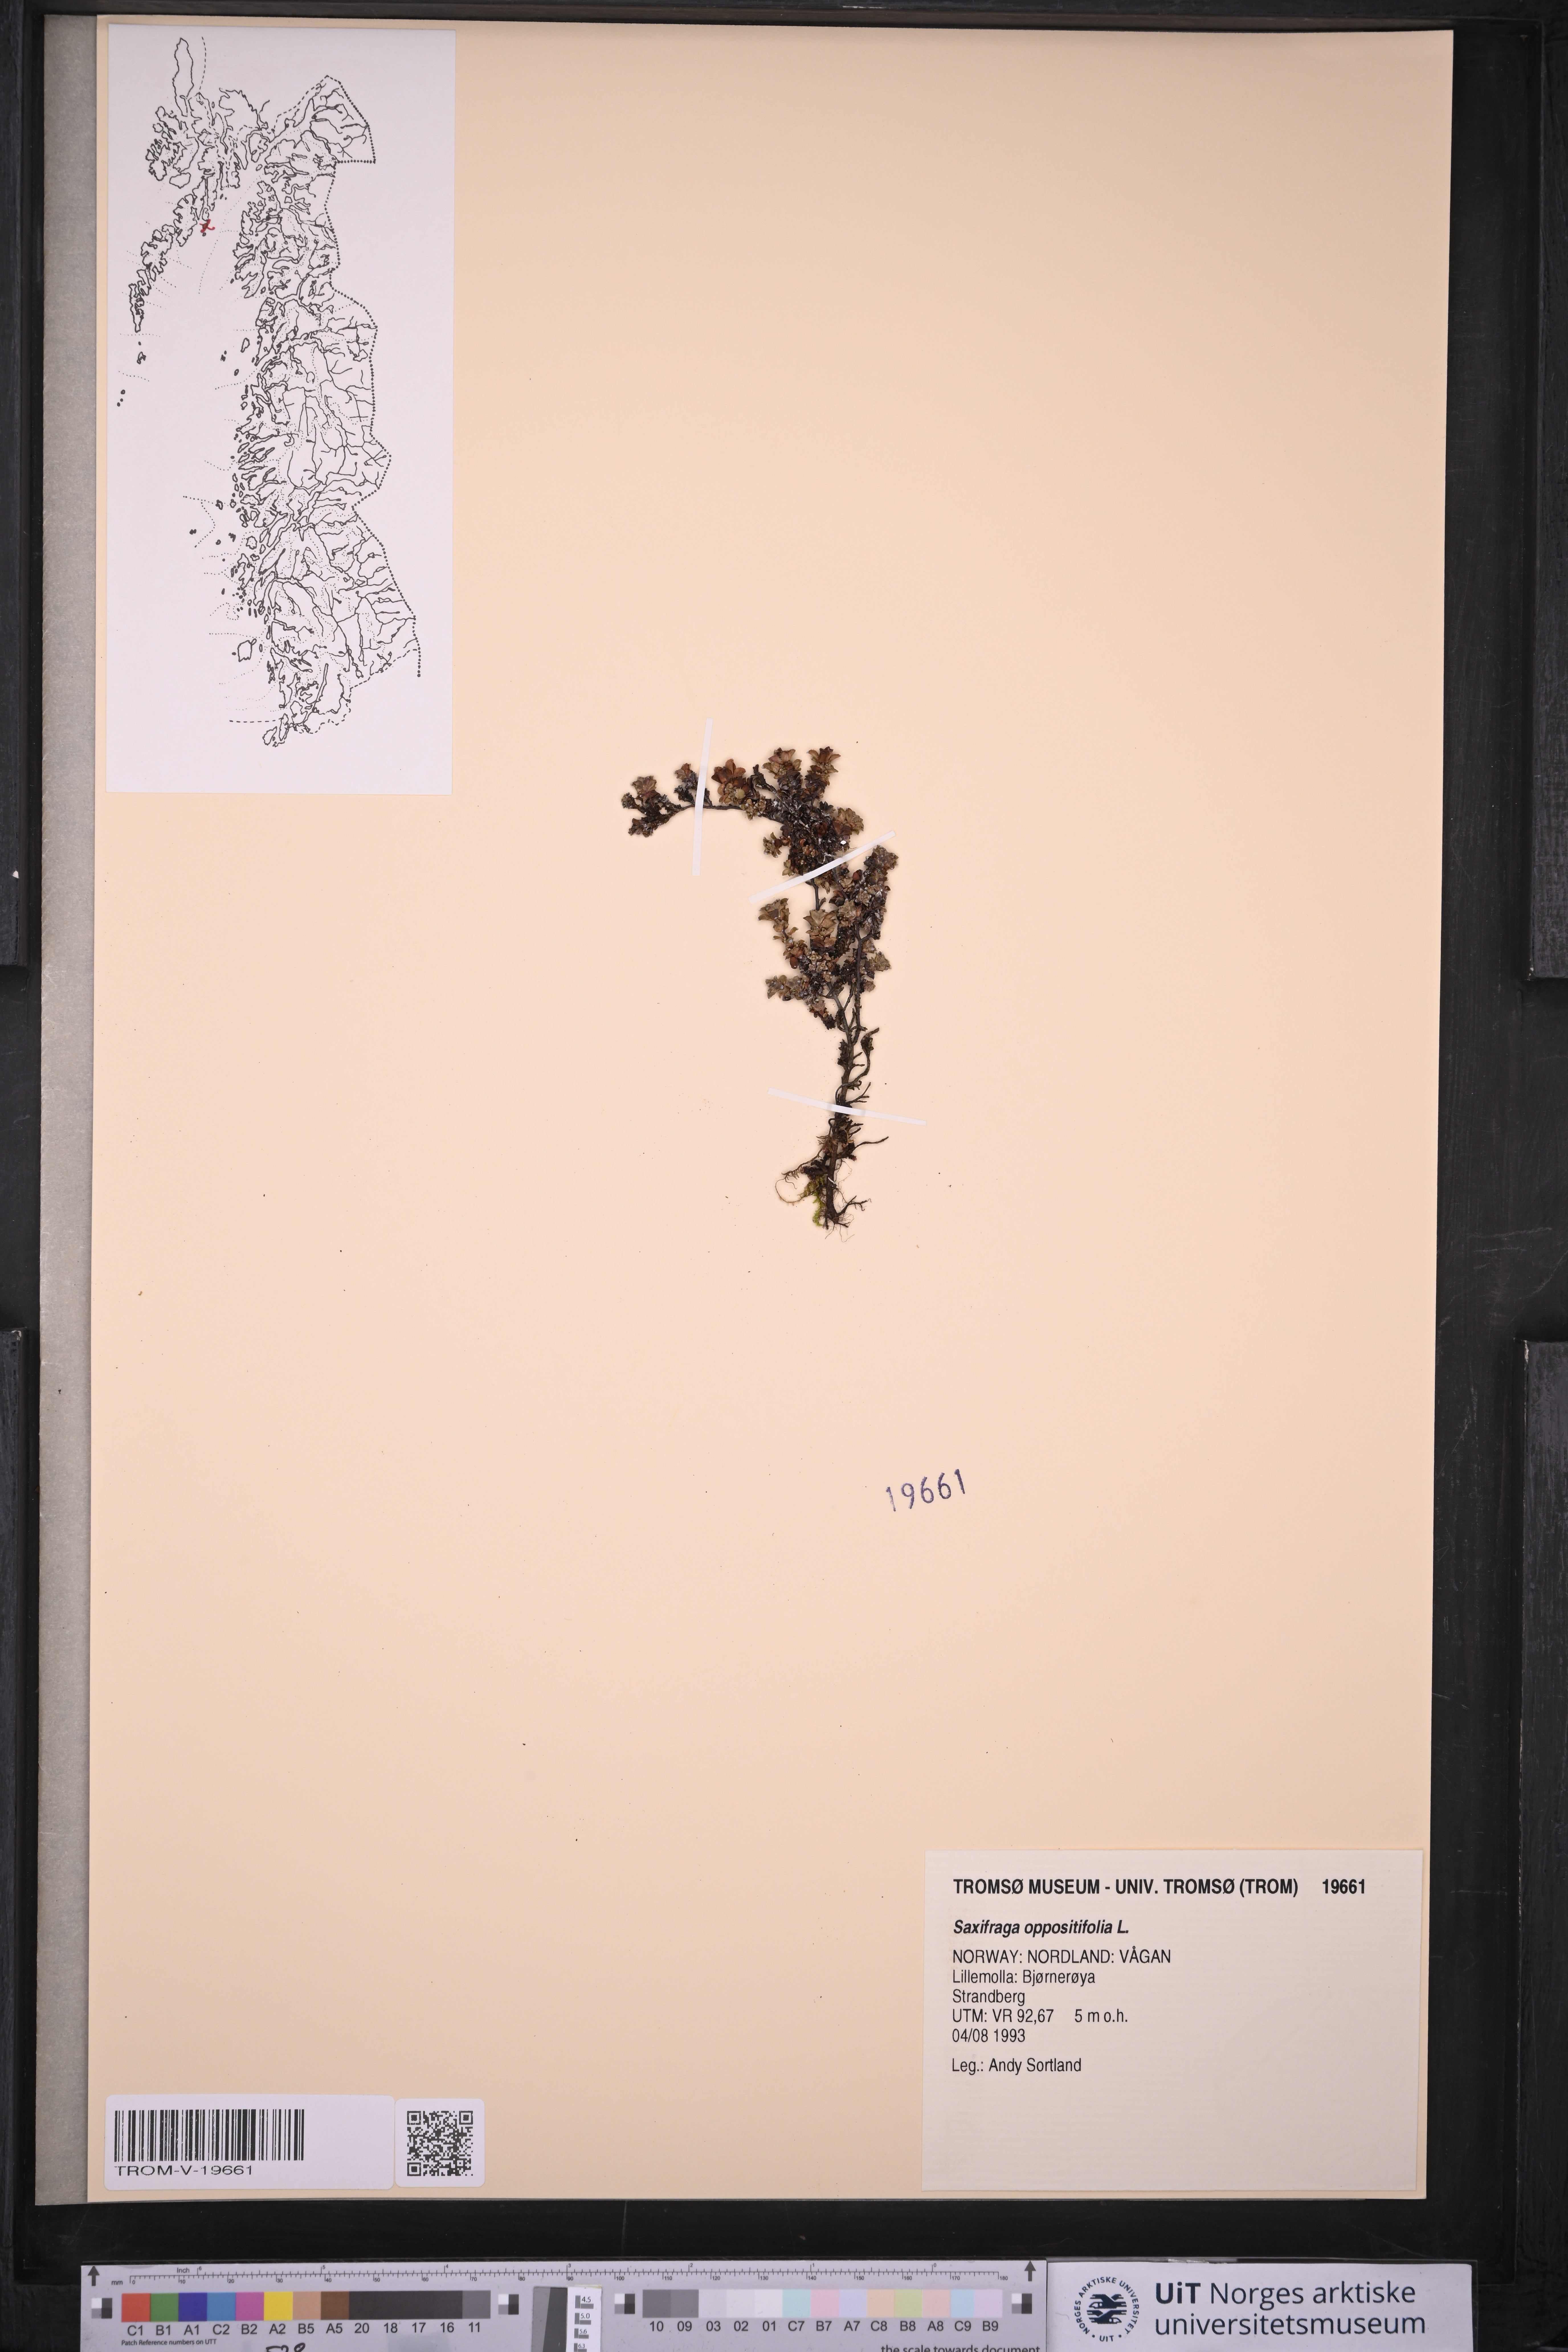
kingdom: Plantae
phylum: Tracheophyta
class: Magnoliopsida
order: Saxifragales
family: Saxifragaceae
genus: Saxifraga
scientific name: Saxifraga oppositifolia
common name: Purple saxifrage
